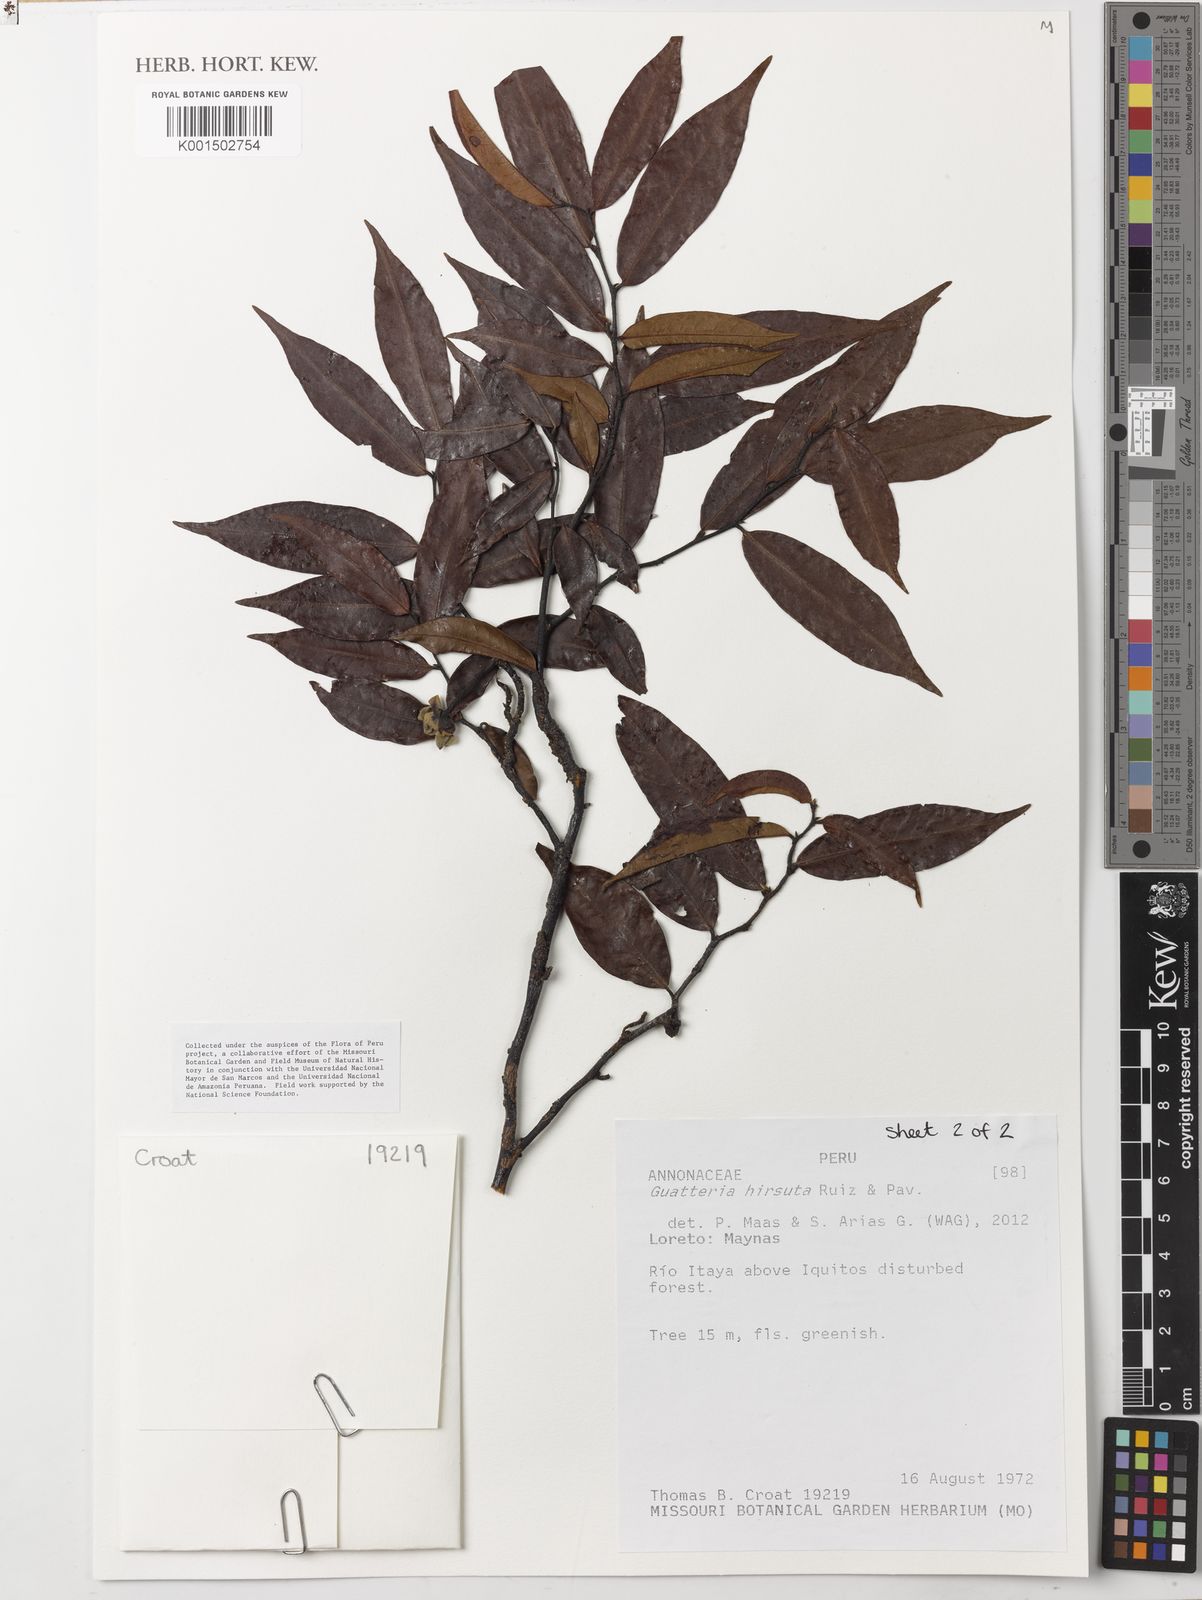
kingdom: Plantae
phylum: Tracheophyta
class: Magnoliopsida
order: Magnoliales
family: Annonaceae
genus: Guatteria
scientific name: Guatteria hirsuta
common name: Laurel
